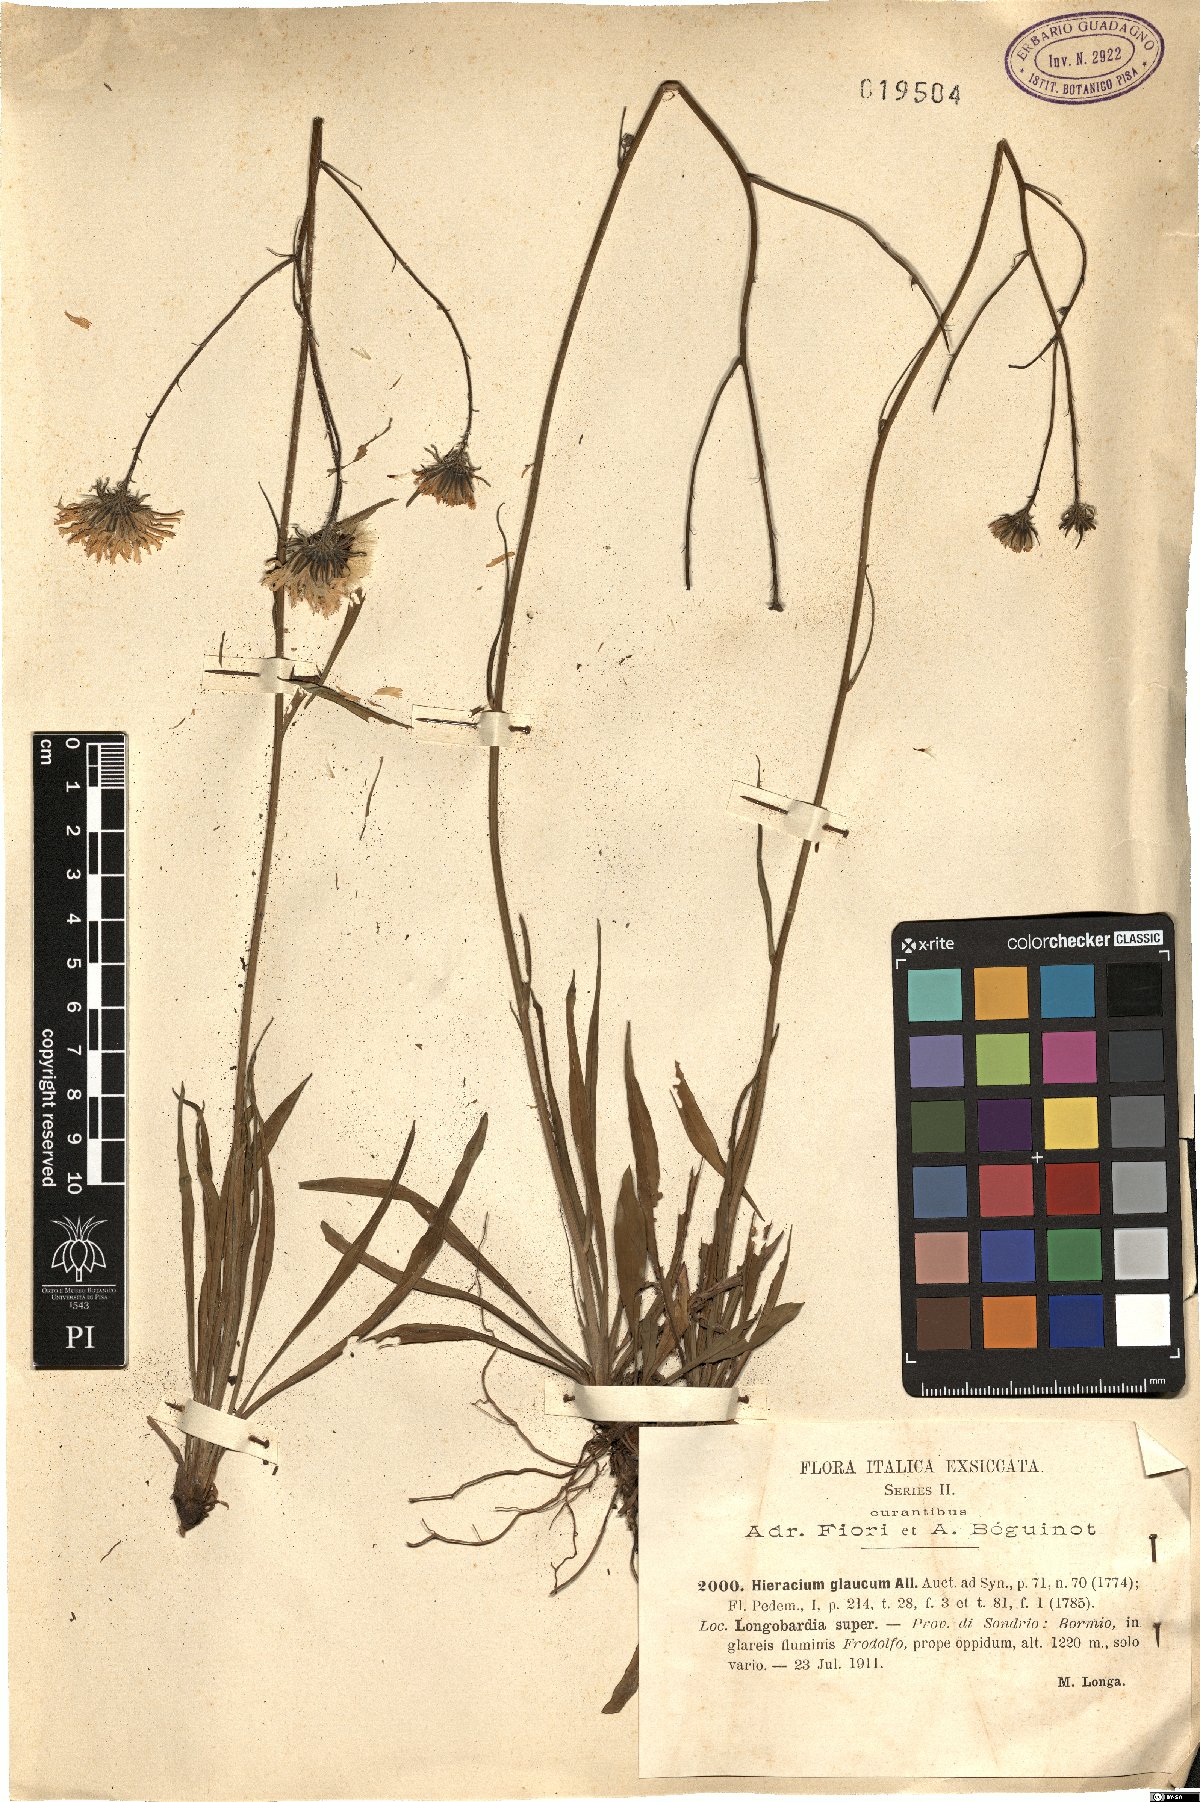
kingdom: Plantae
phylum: Tracheophyta
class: Magnoliopsida
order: Asterales
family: Asteraceae
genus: Hieracium
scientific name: Hieracium glaucum
